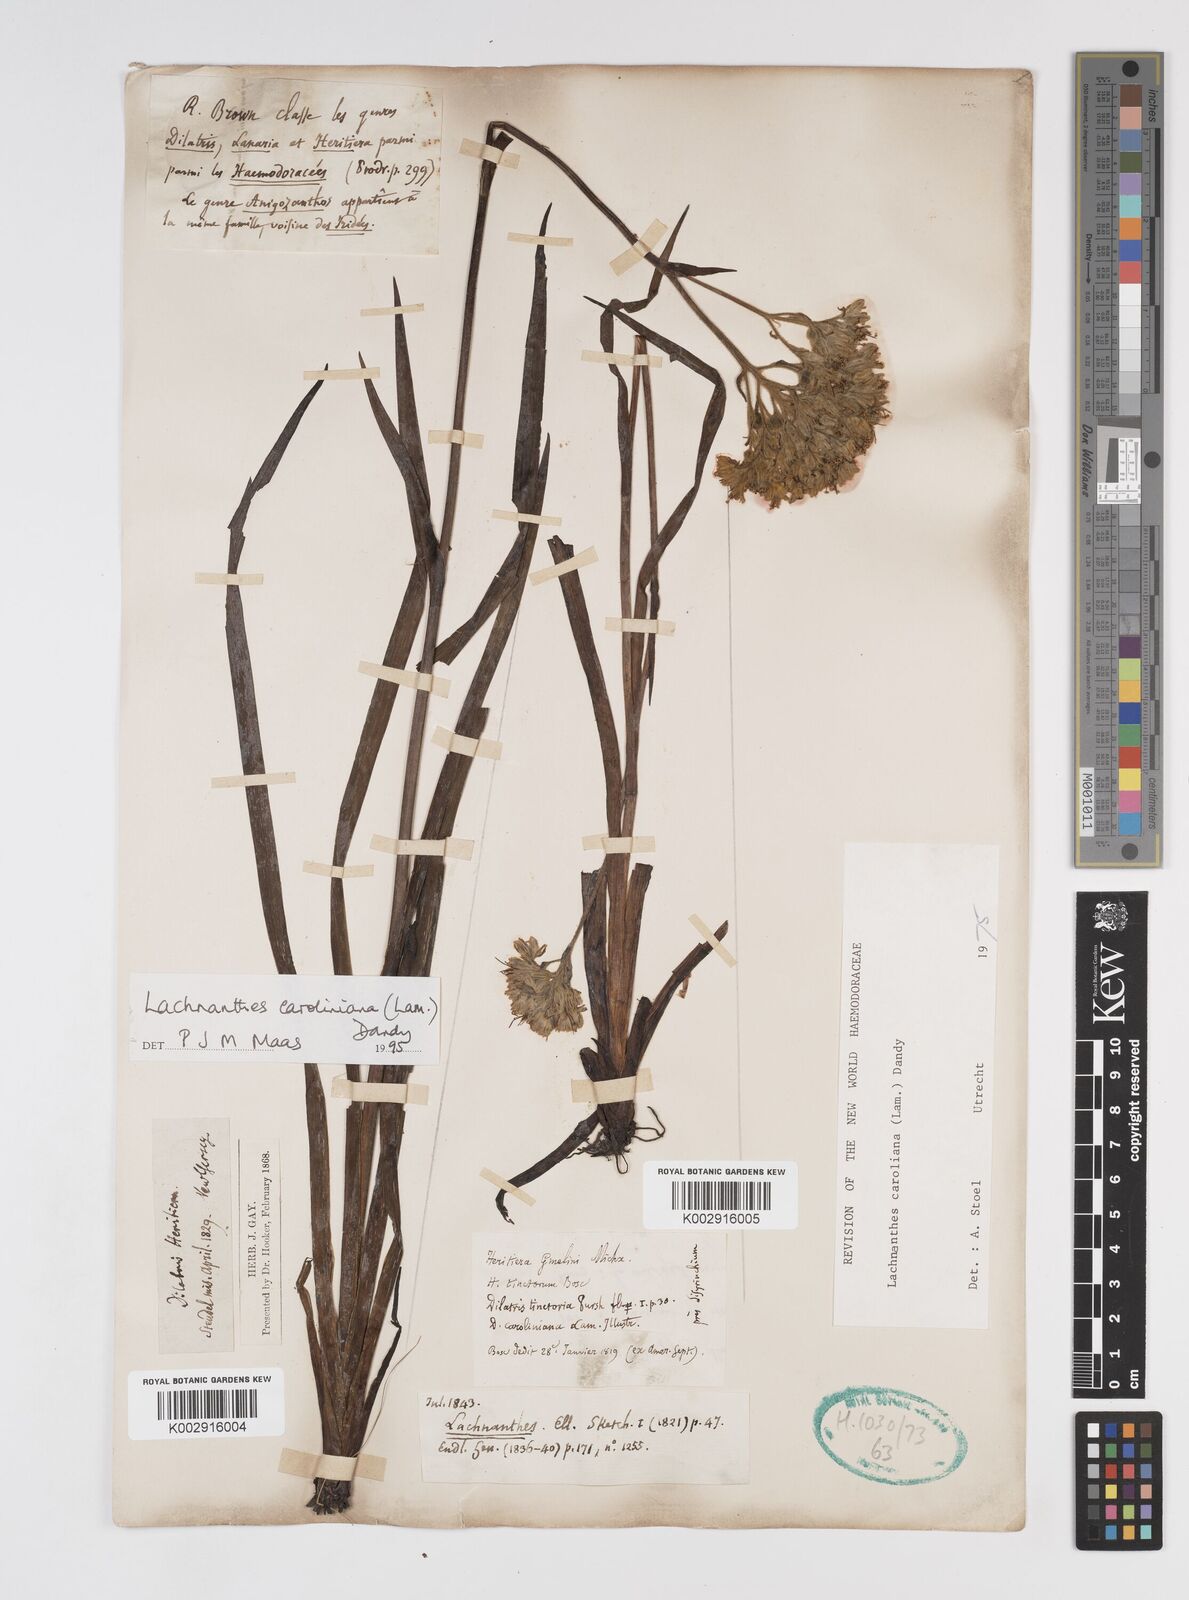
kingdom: Plantae
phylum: Tracheophyta
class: Liliopsida
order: Commelinales
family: Haemodoraceae
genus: Lachnanthes
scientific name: Lachnanthes caroliniana
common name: Carolina redroot
